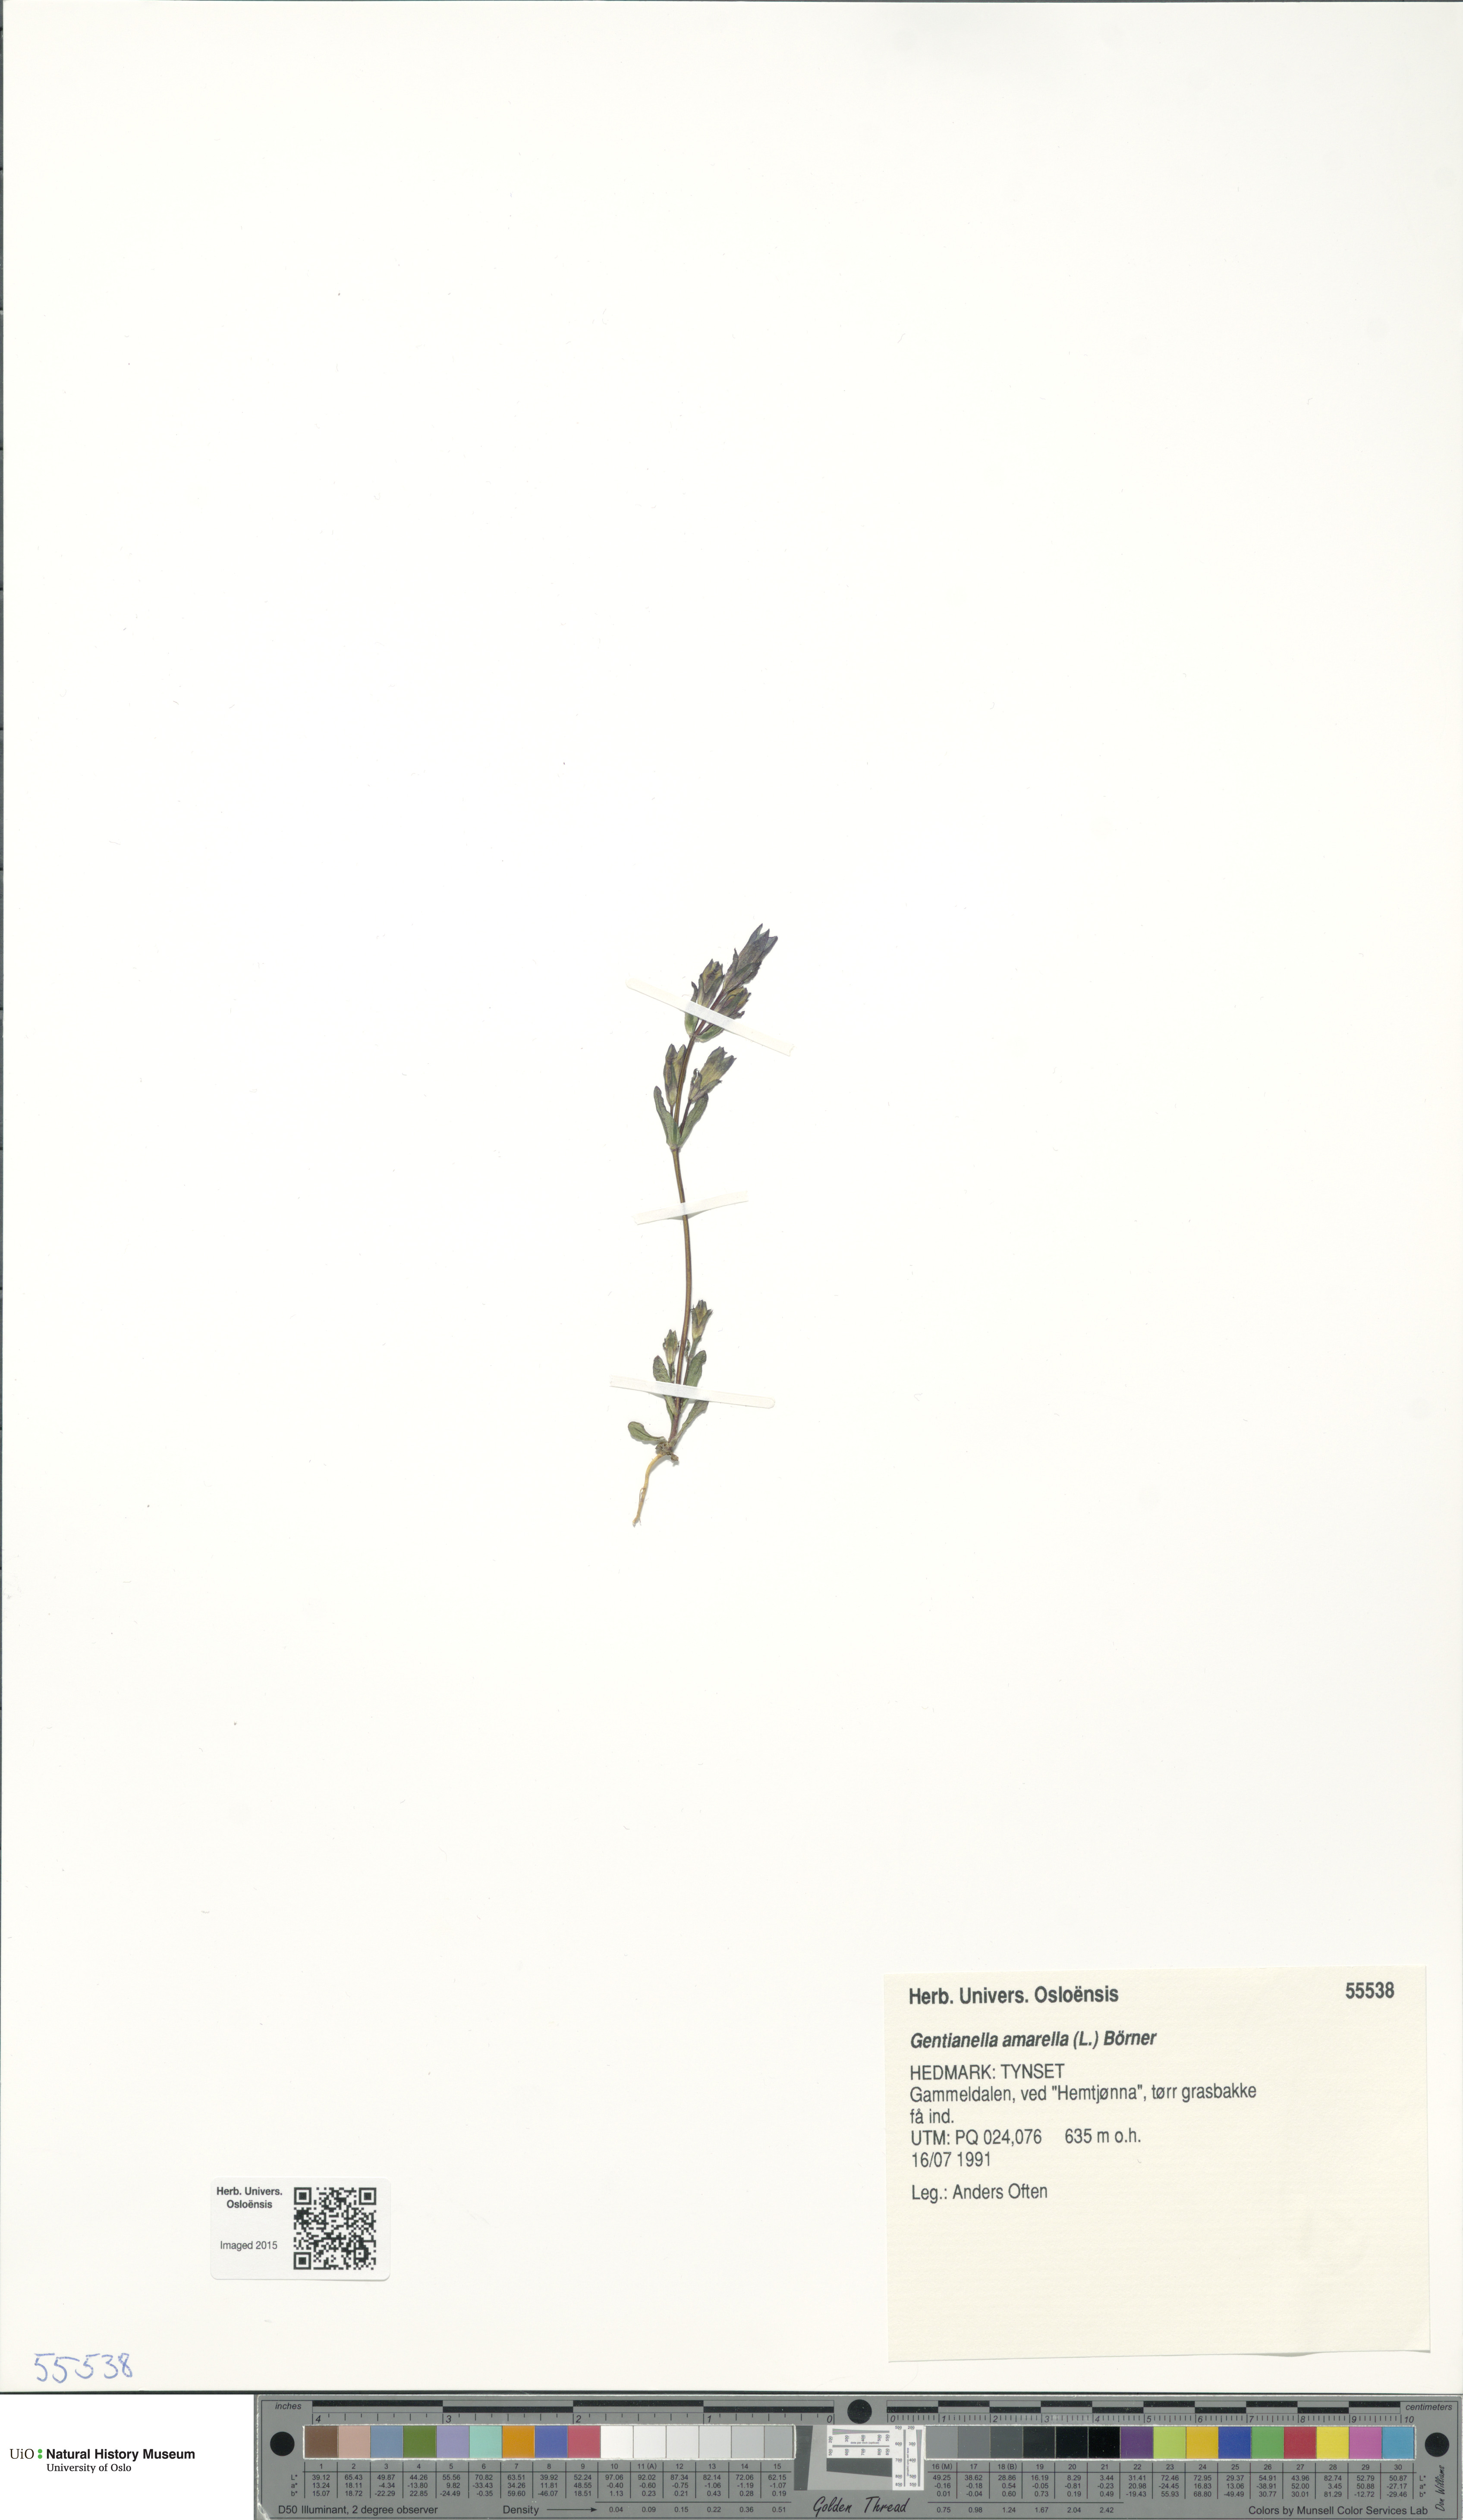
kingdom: Plantae
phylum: Tracheophyta
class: Magnoliopsida
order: Gentianales
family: Gentianaceae
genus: Gentianella
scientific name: Gentianella amarella
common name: Autumn gentian
